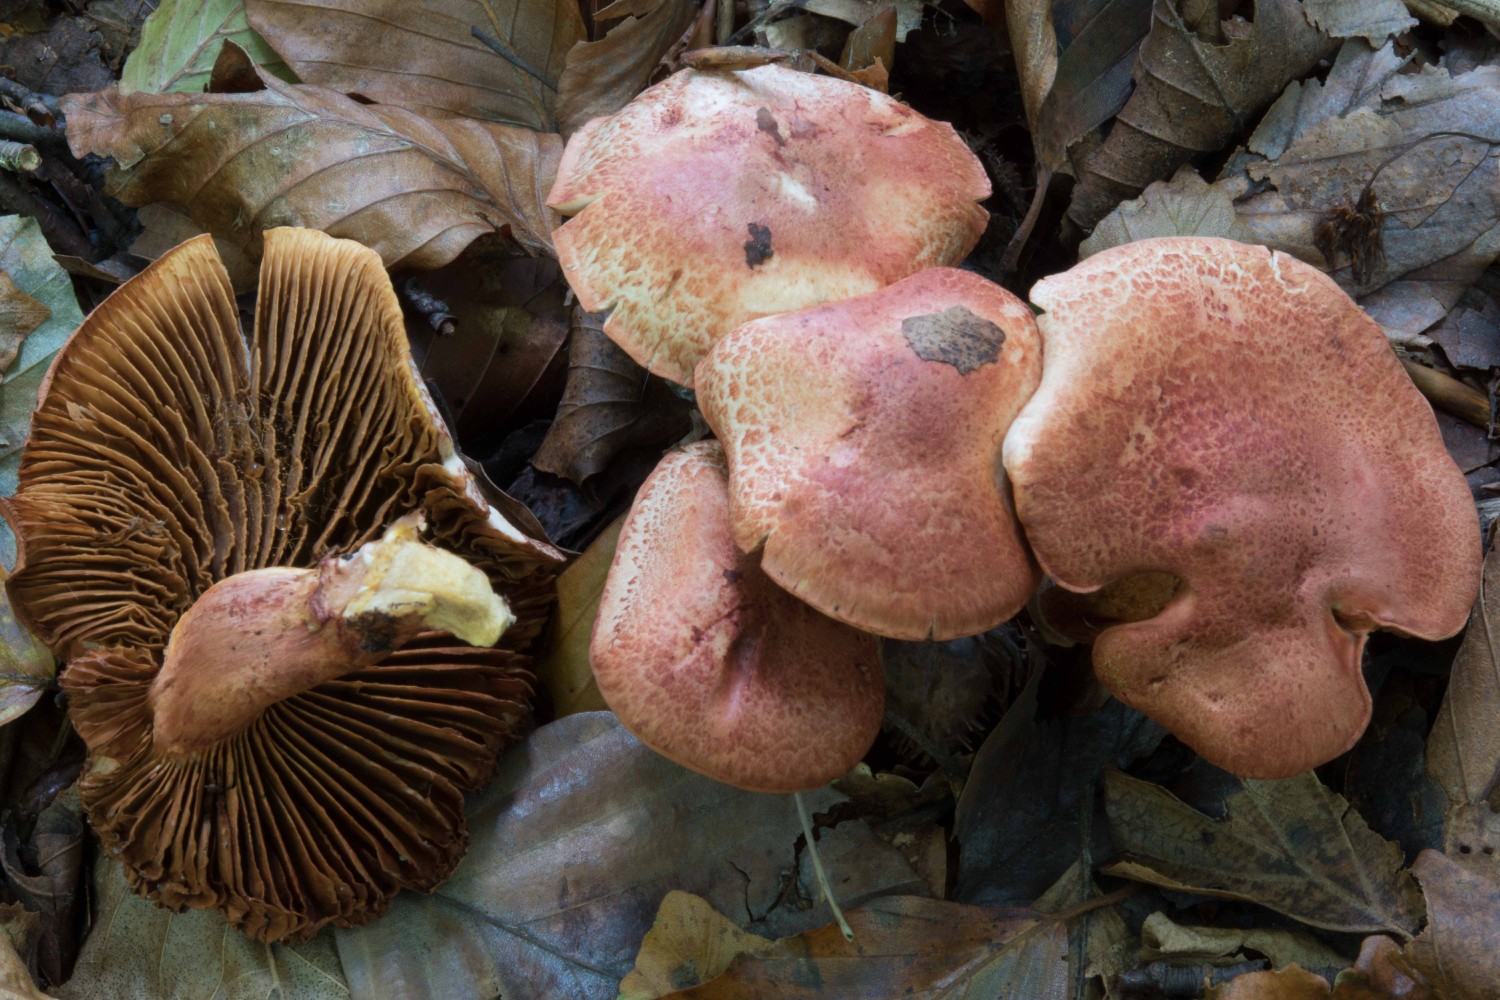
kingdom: Fungi
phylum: Basidiomycota
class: Agaricomycetes
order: Agaricales
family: Cortinariaceae
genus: Cortinarius
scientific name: Cortinarius bolaris
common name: cinnoberskællet slørhat
